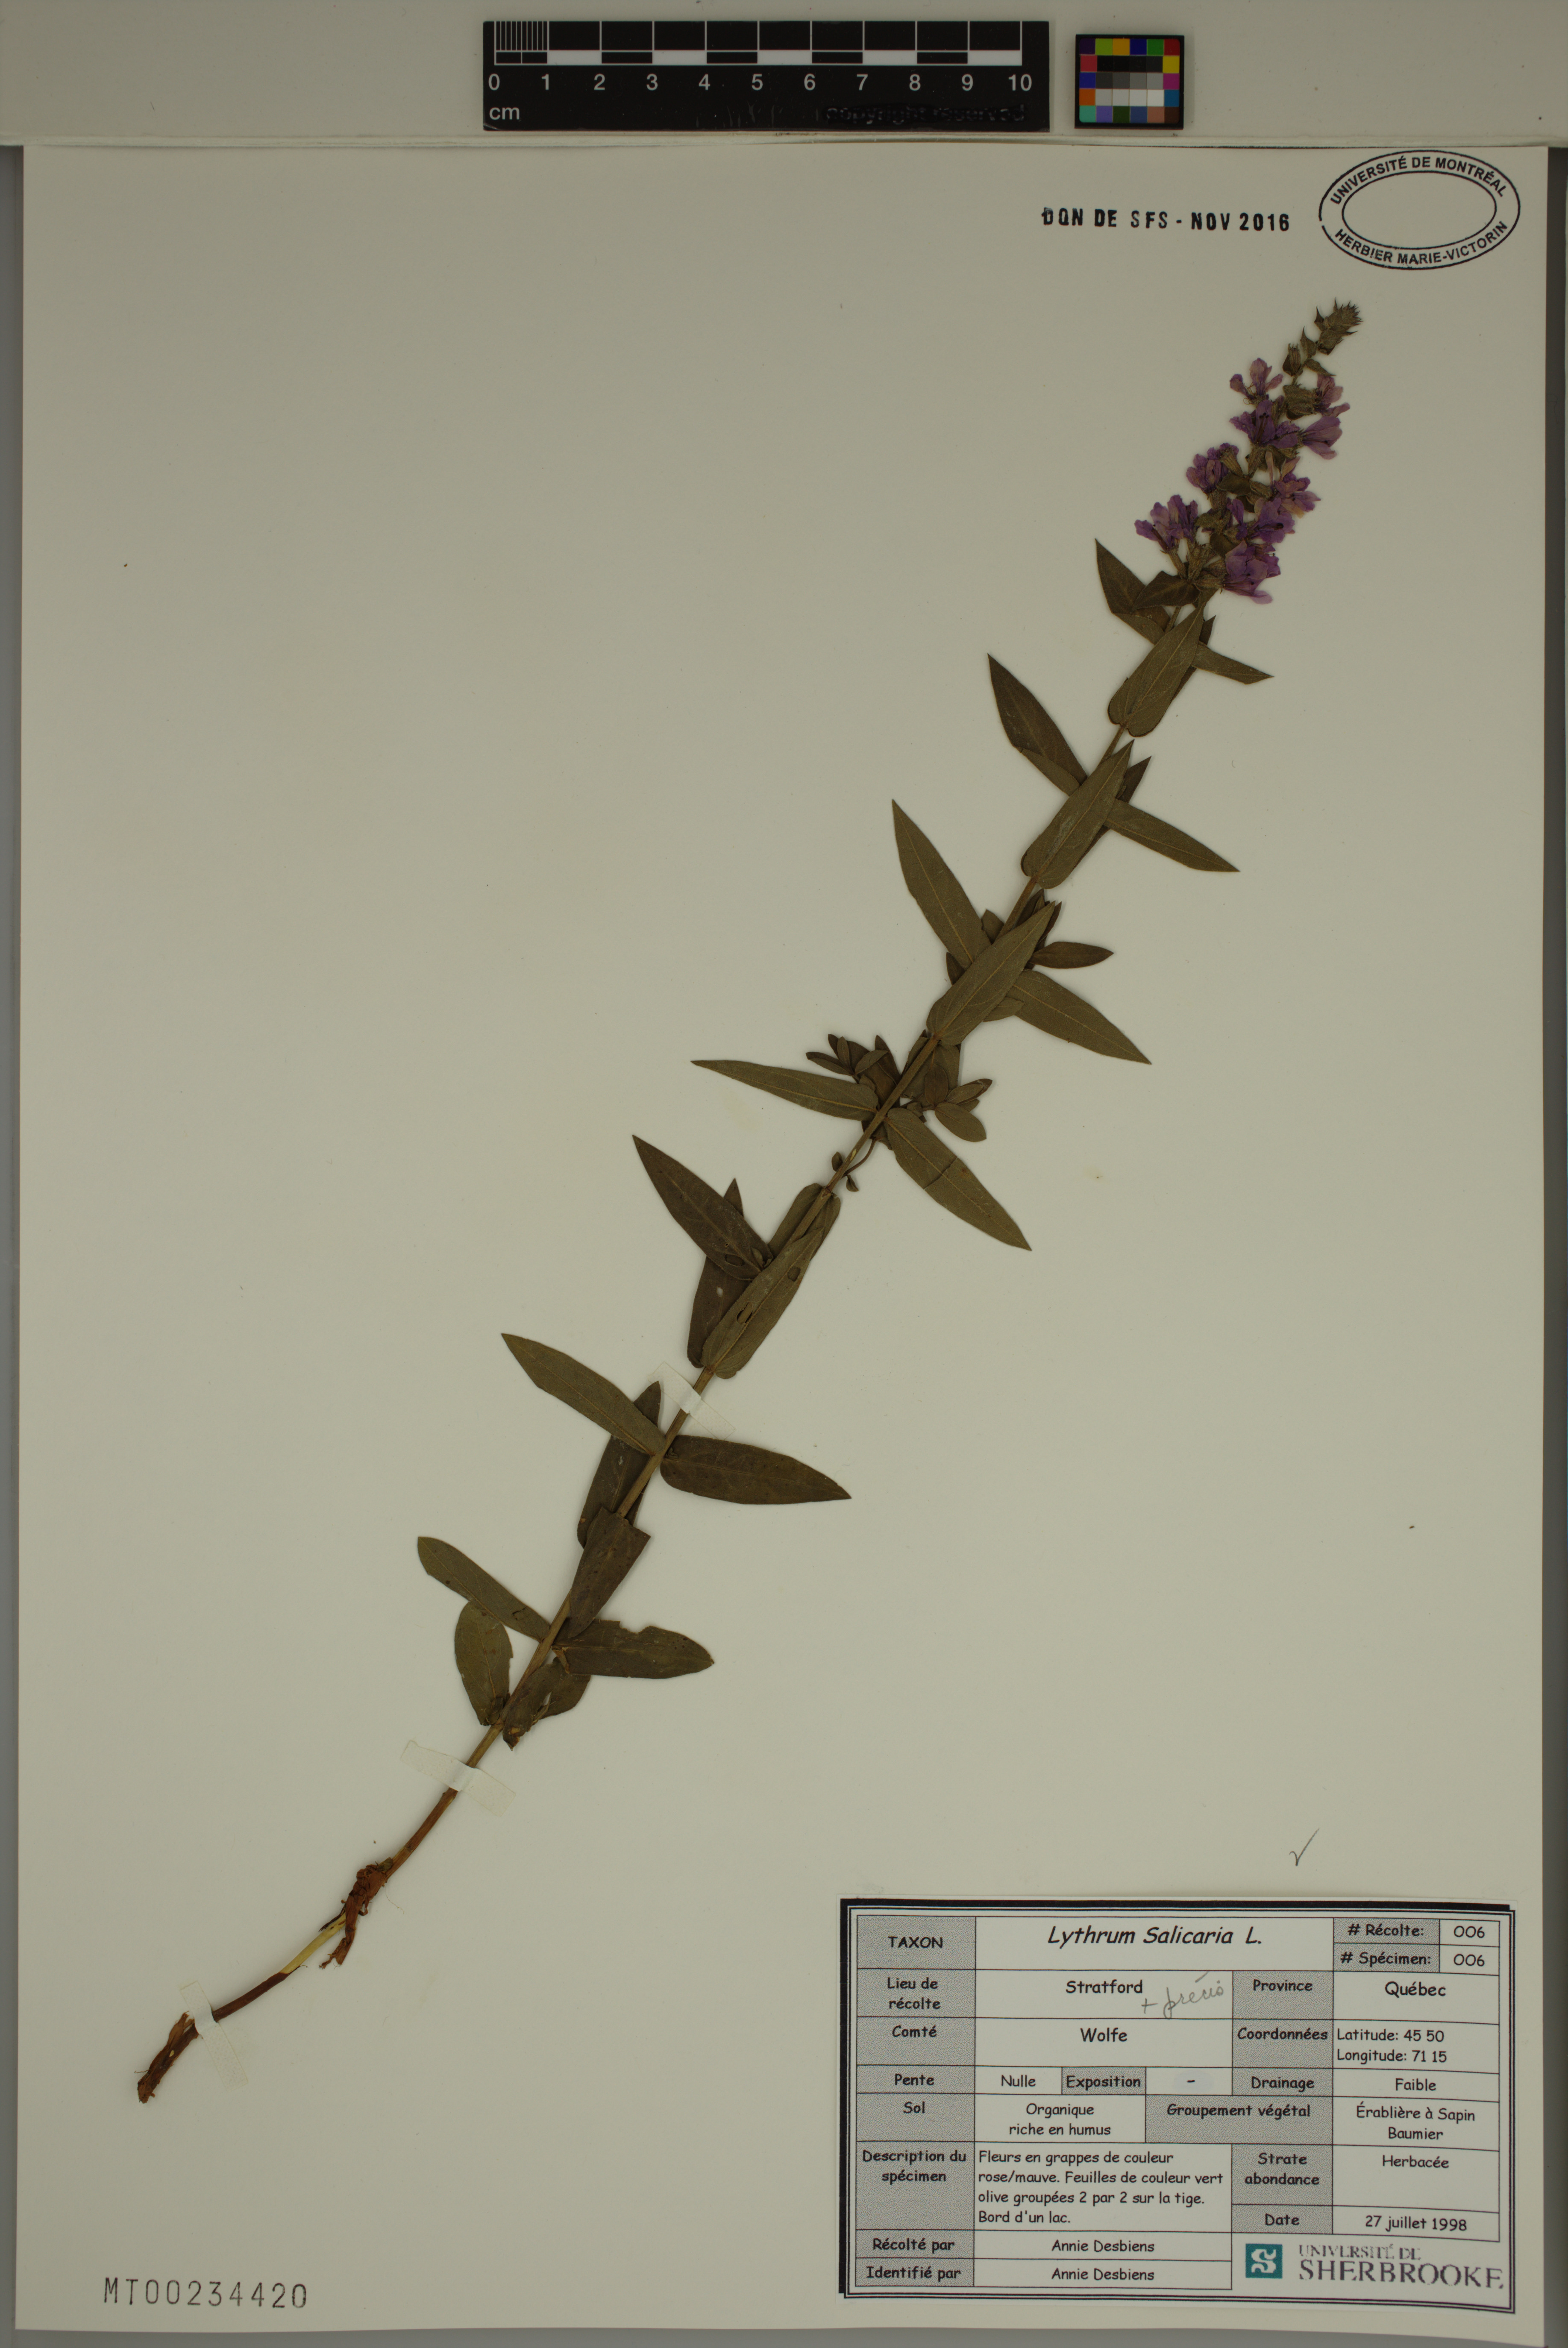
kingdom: Plantae
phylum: Tracheophyta
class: Magnoliopsida
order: Myrtales
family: Lythraceae
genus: Lythrum
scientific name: Lythrum salicaria
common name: Purple loosestrife
